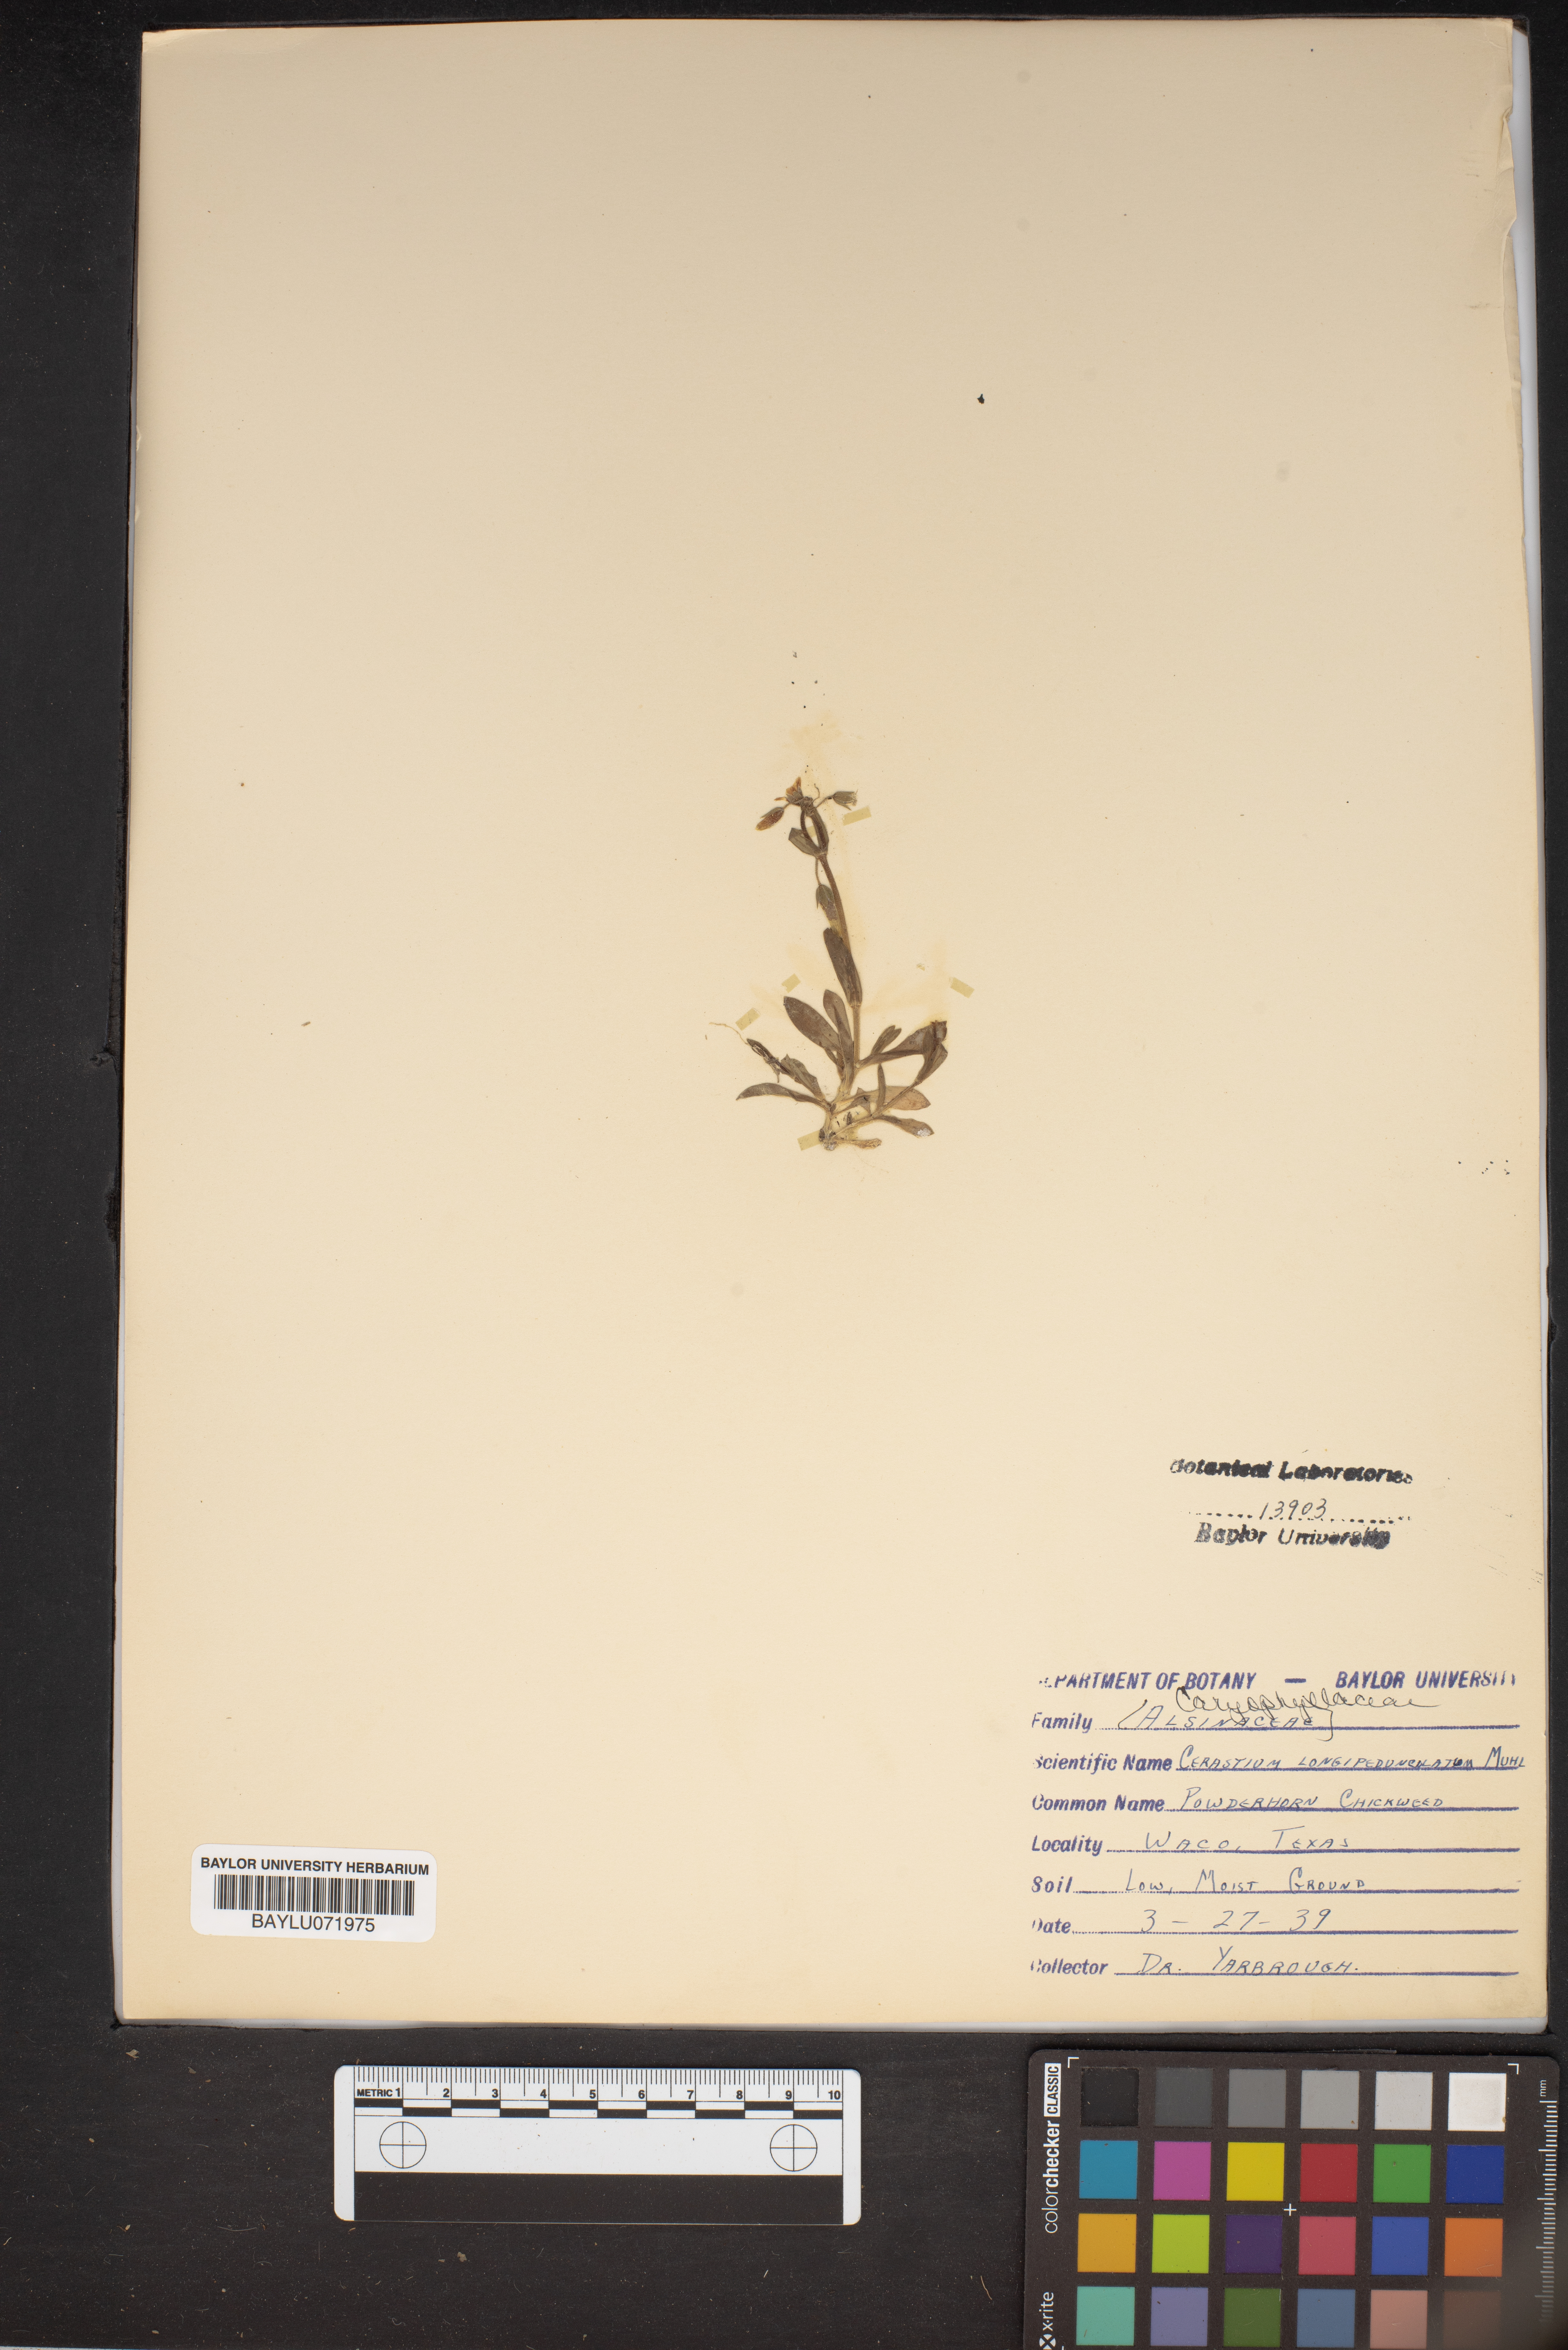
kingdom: Plantae
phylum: Tracheophyta
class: Magnoliopsida
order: Caryophyllales
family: Caryophyllaceae
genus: Cerastium
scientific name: Cerastium nutans
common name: Long-stalked chickweed
